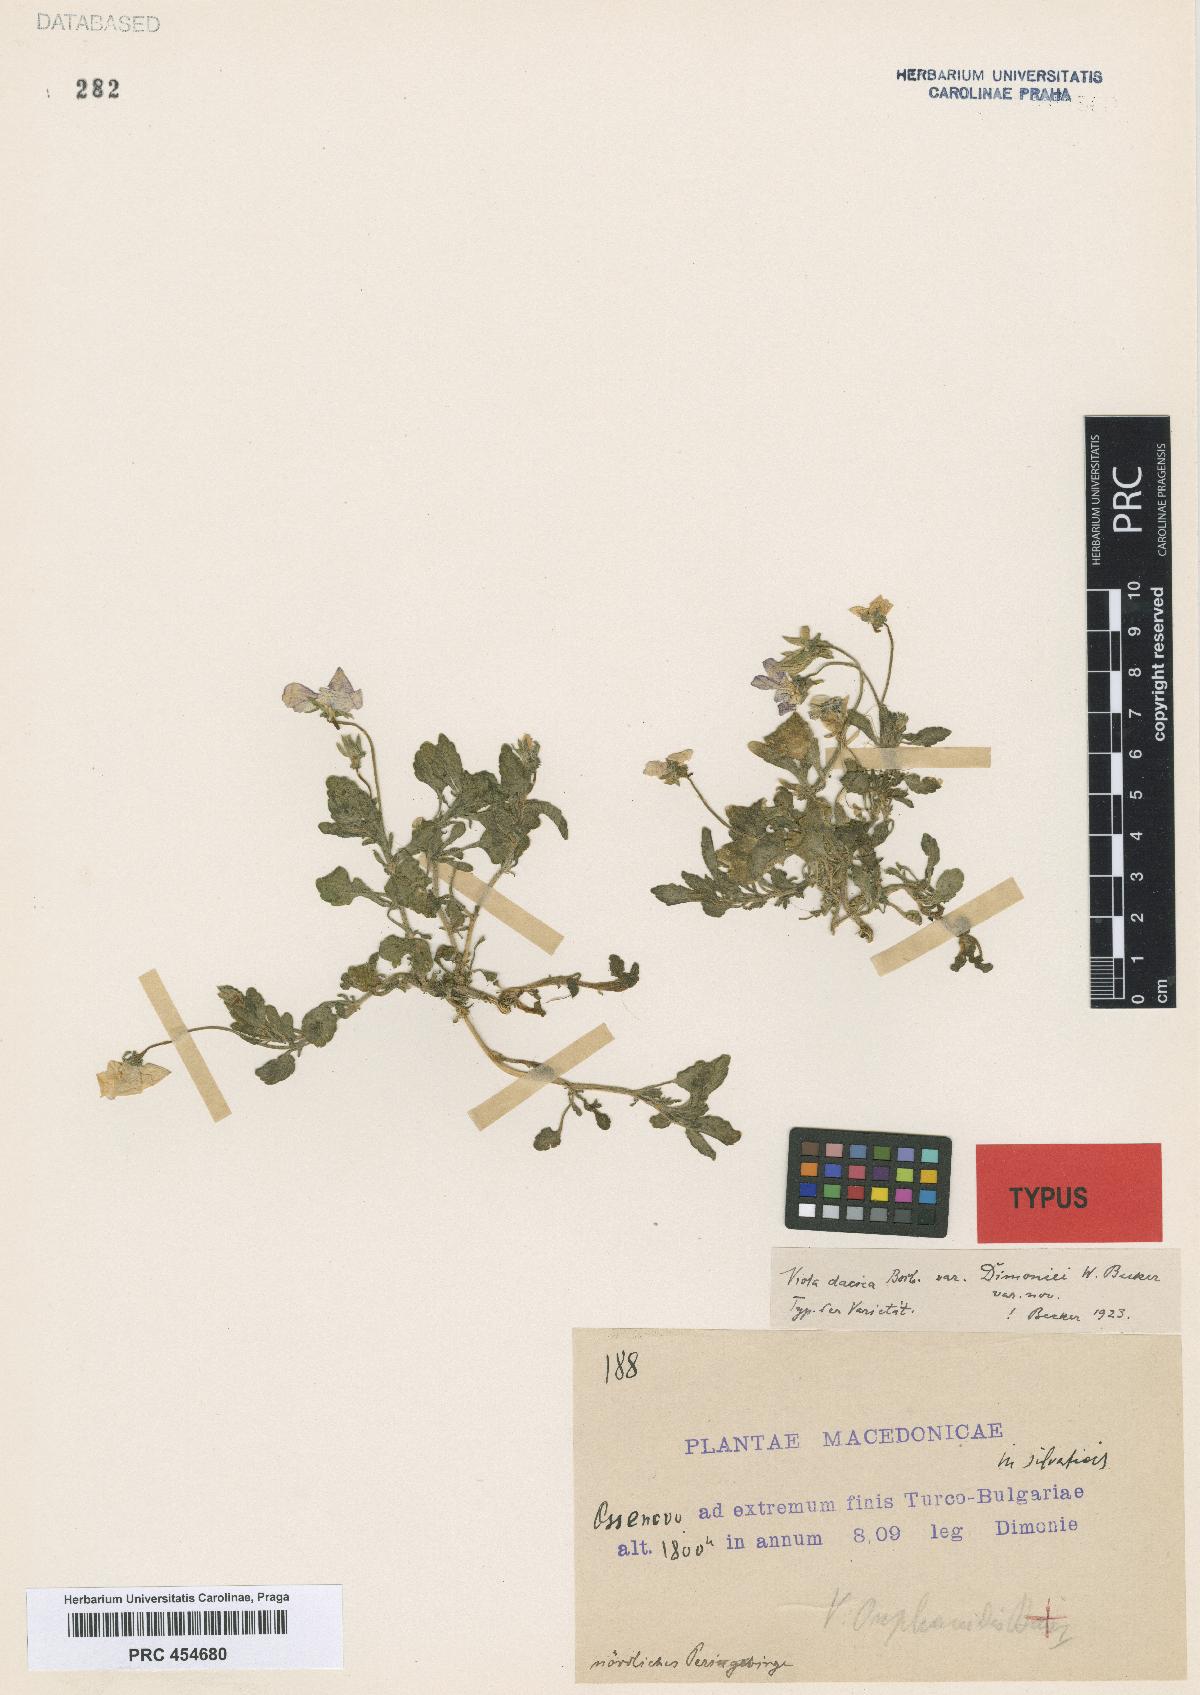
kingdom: Plantae
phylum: Tracheophyta
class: Magnoliopsida
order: Malpighiales
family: Violaceae
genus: Viola
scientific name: Viola dacica
